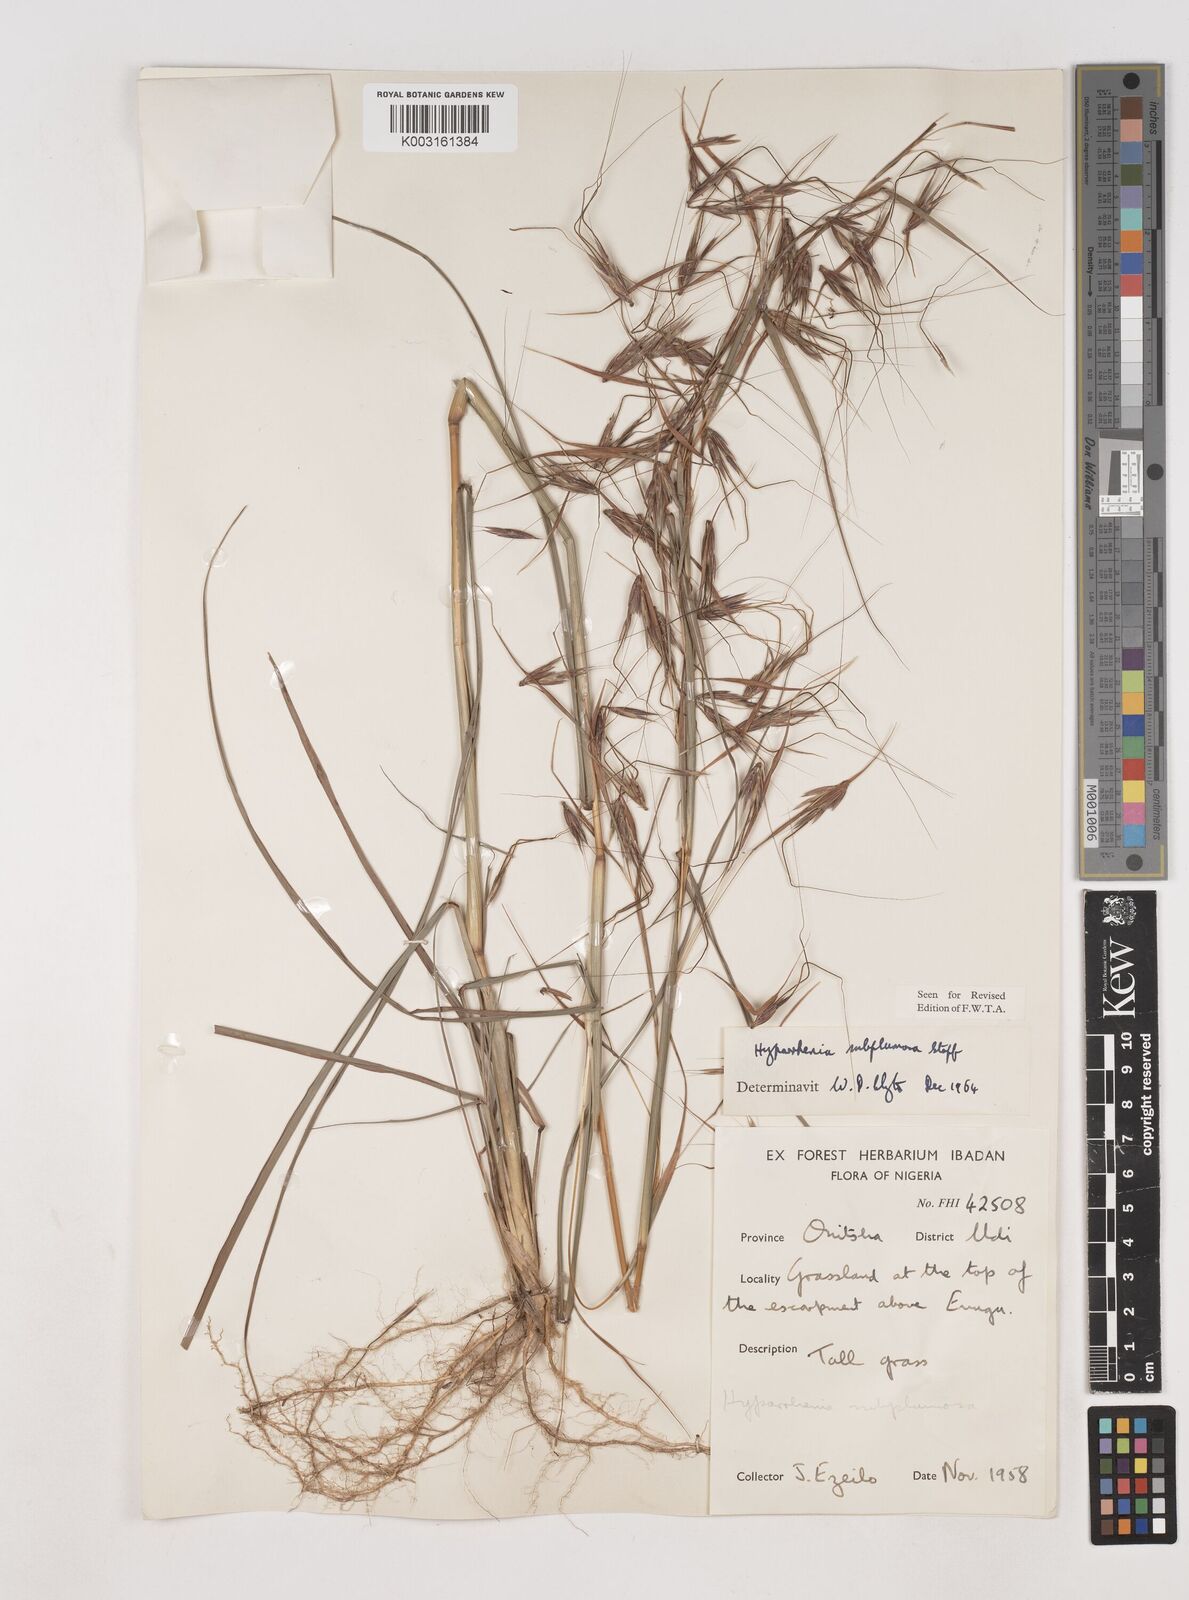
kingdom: Plantae
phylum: Tracheophyta
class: Liliopsida
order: Poales
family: Poaceae
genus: Hyparrhenia
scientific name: Hyparrhenia subplumosa
